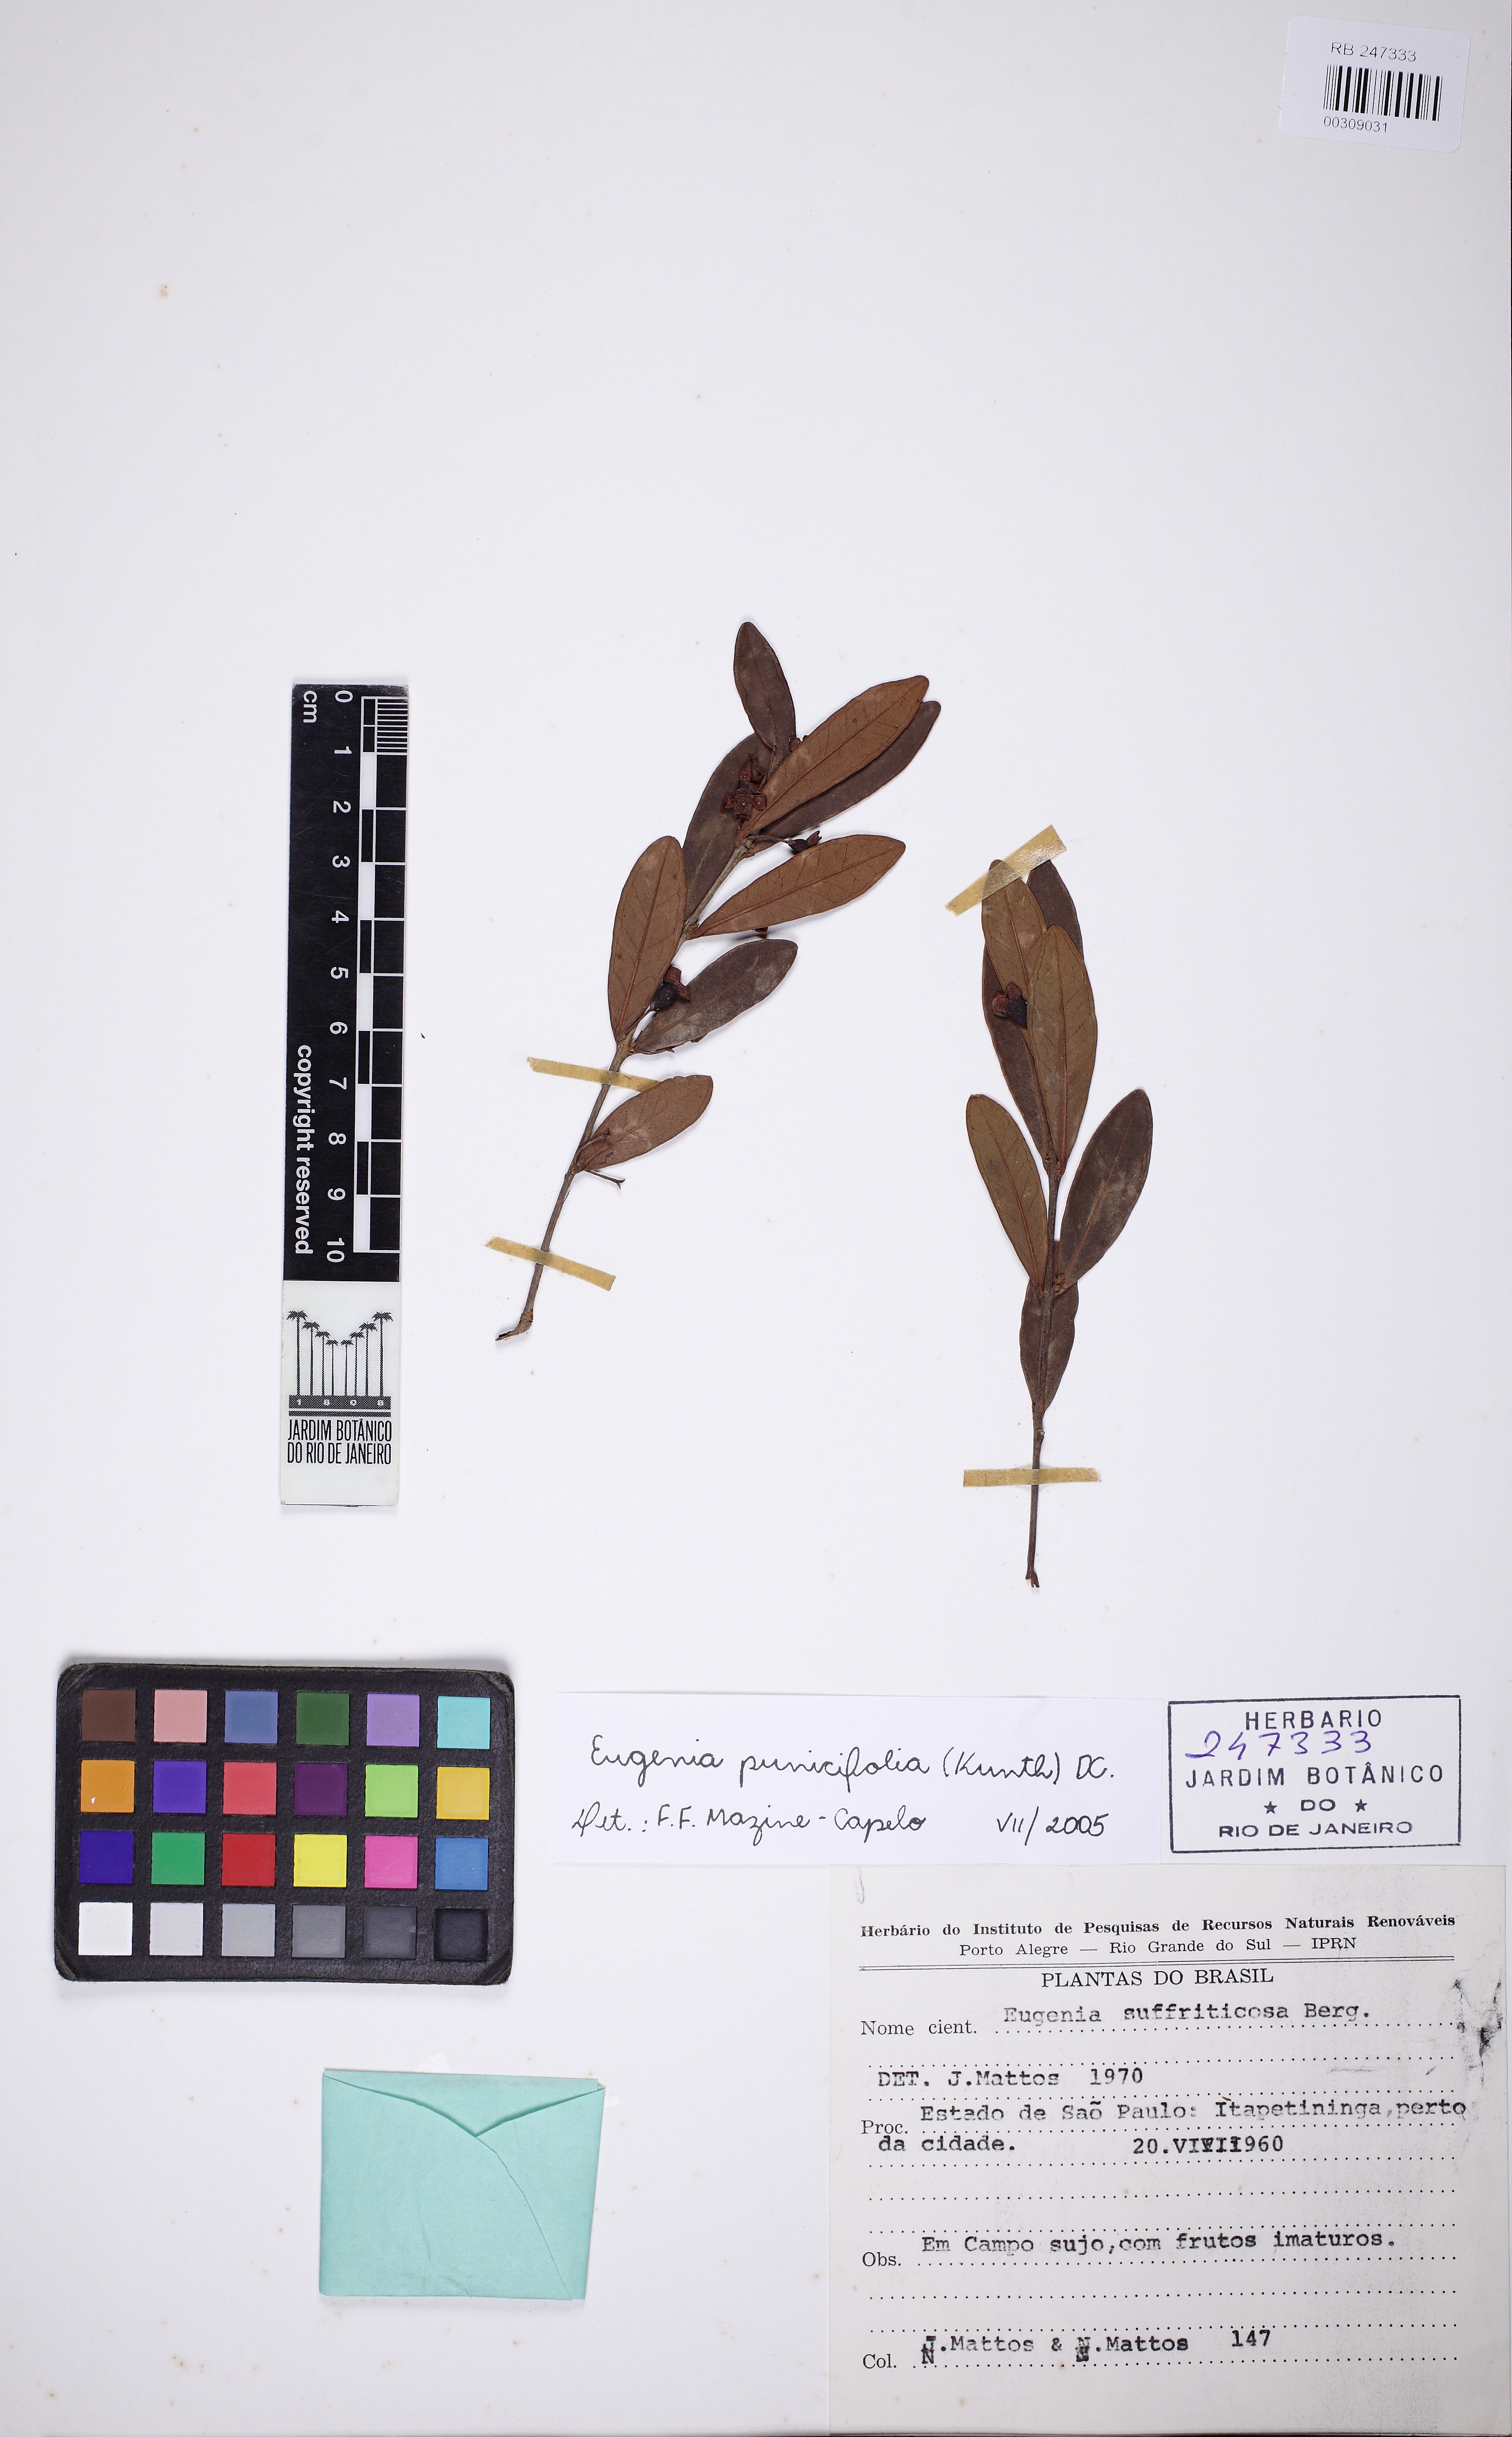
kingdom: Plantae
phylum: Tracheophyta
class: Magnoliopsida
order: Myrtales
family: Myrtaceae
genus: Eugenia
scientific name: Eugenia punicifolia
